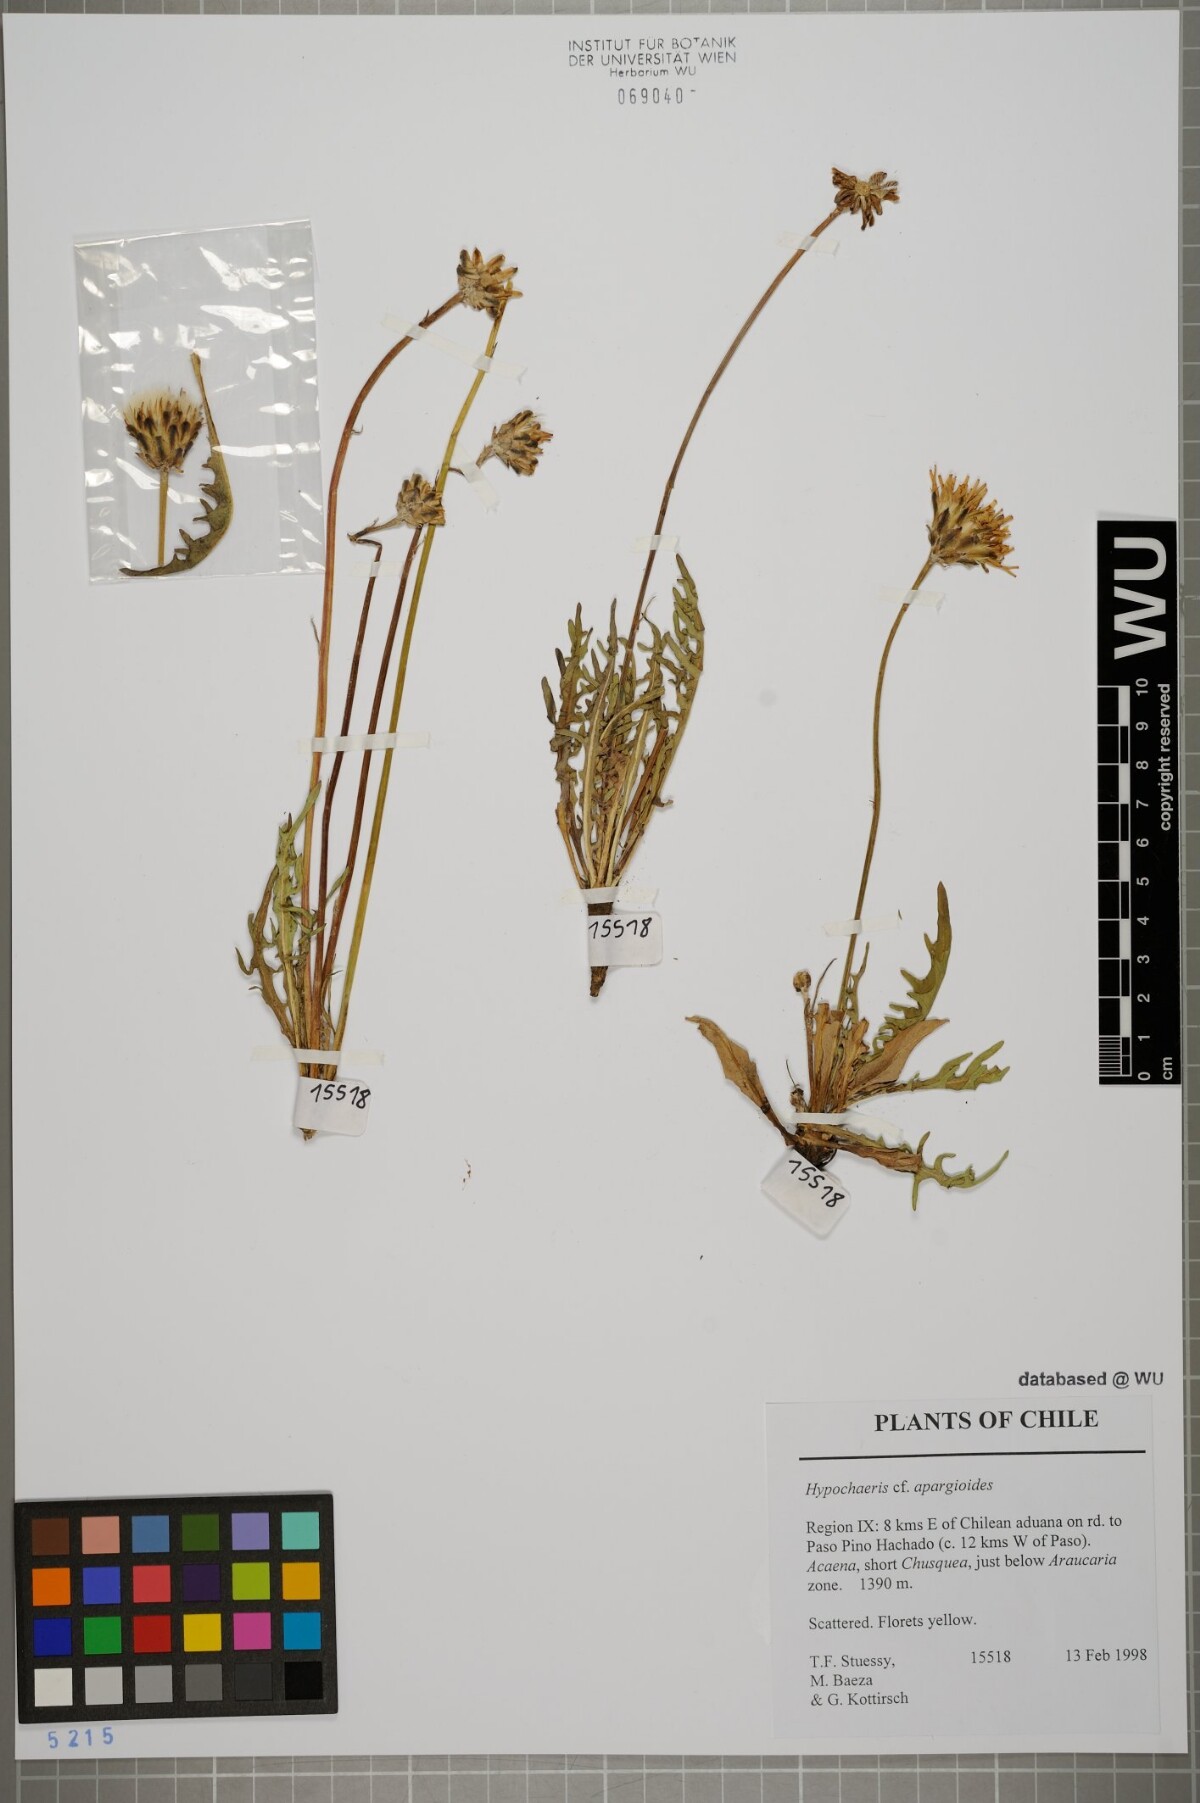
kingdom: Plantae
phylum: Tracheophyta
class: Magnoliopsida
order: Asterales
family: Asteraceae
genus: Hypochaeris
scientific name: Hypochaeris apargioides
